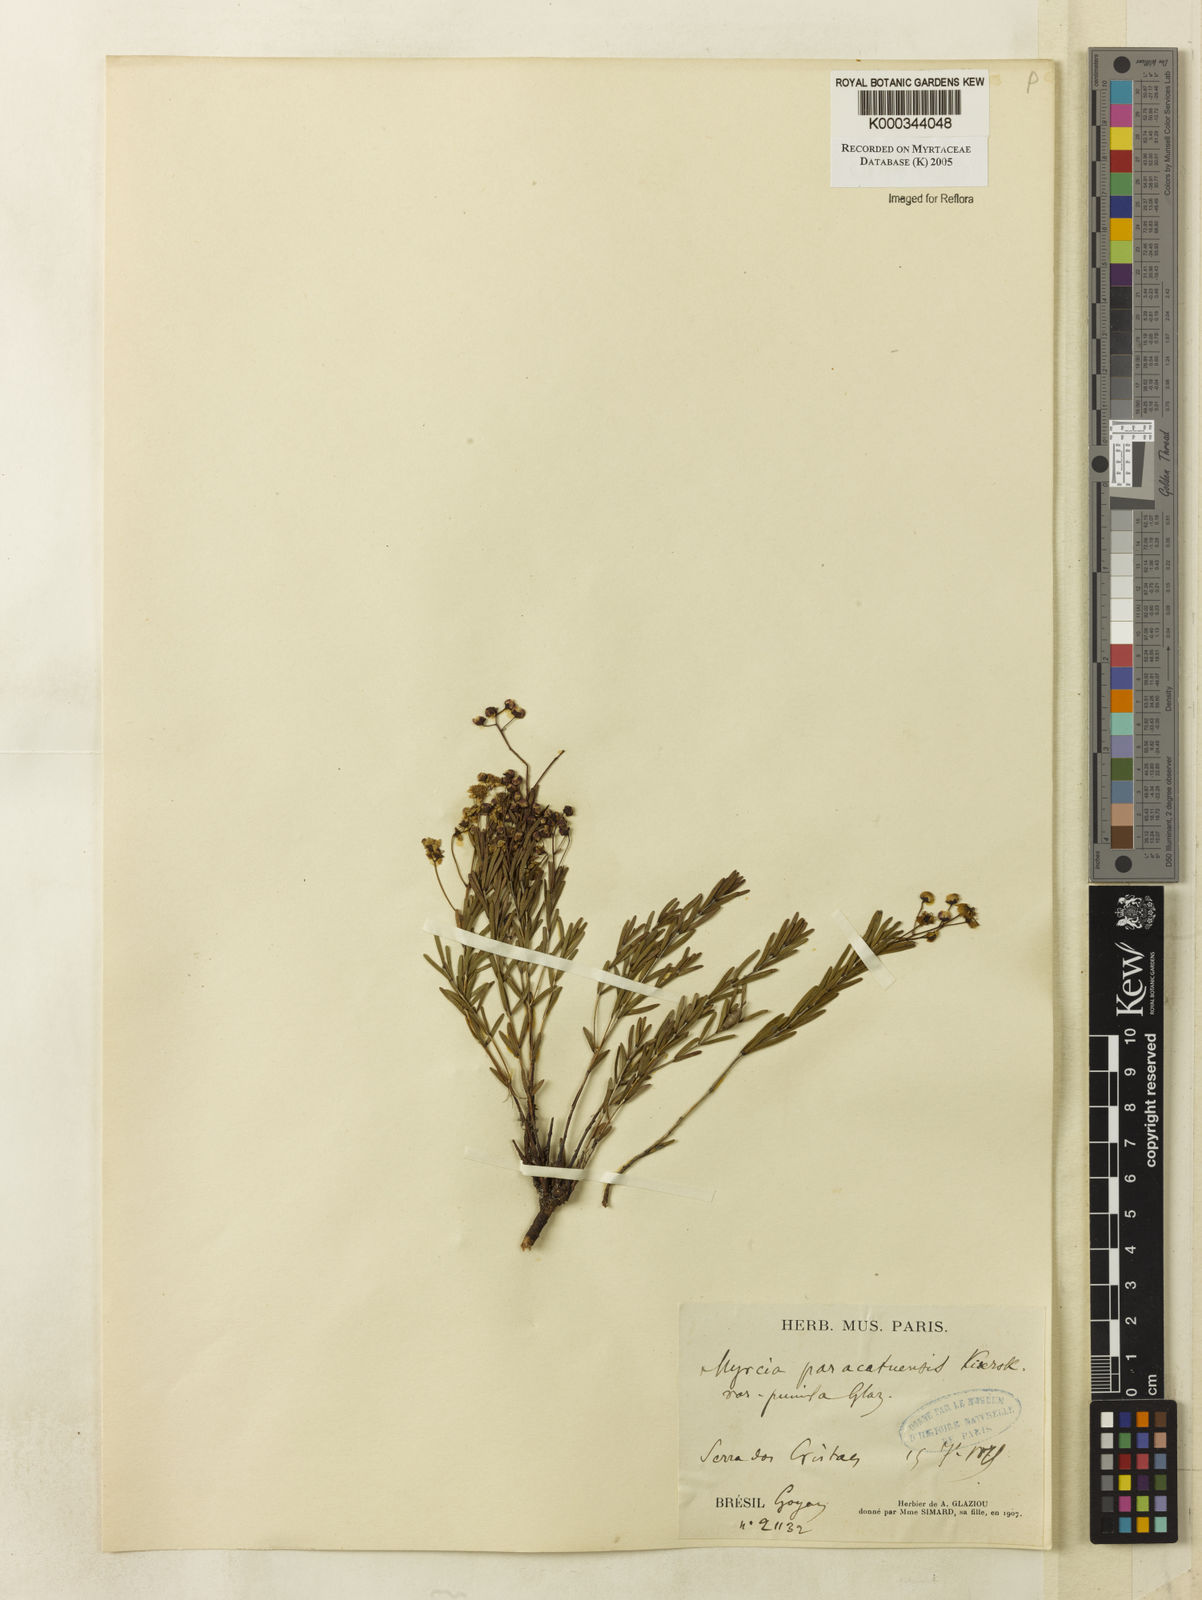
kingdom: Plantae
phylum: Tracheophyta
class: Magnoliopsida
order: Myrtales
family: Myrtaceae
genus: Myrcia
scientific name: Myrcia paracatuensis
